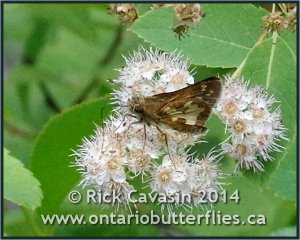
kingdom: Animalia
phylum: Arthropoda
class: Insecta
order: Lepidoptera
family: Hesperiidae
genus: Polites
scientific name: Polites coras
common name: Peck's Skipper
